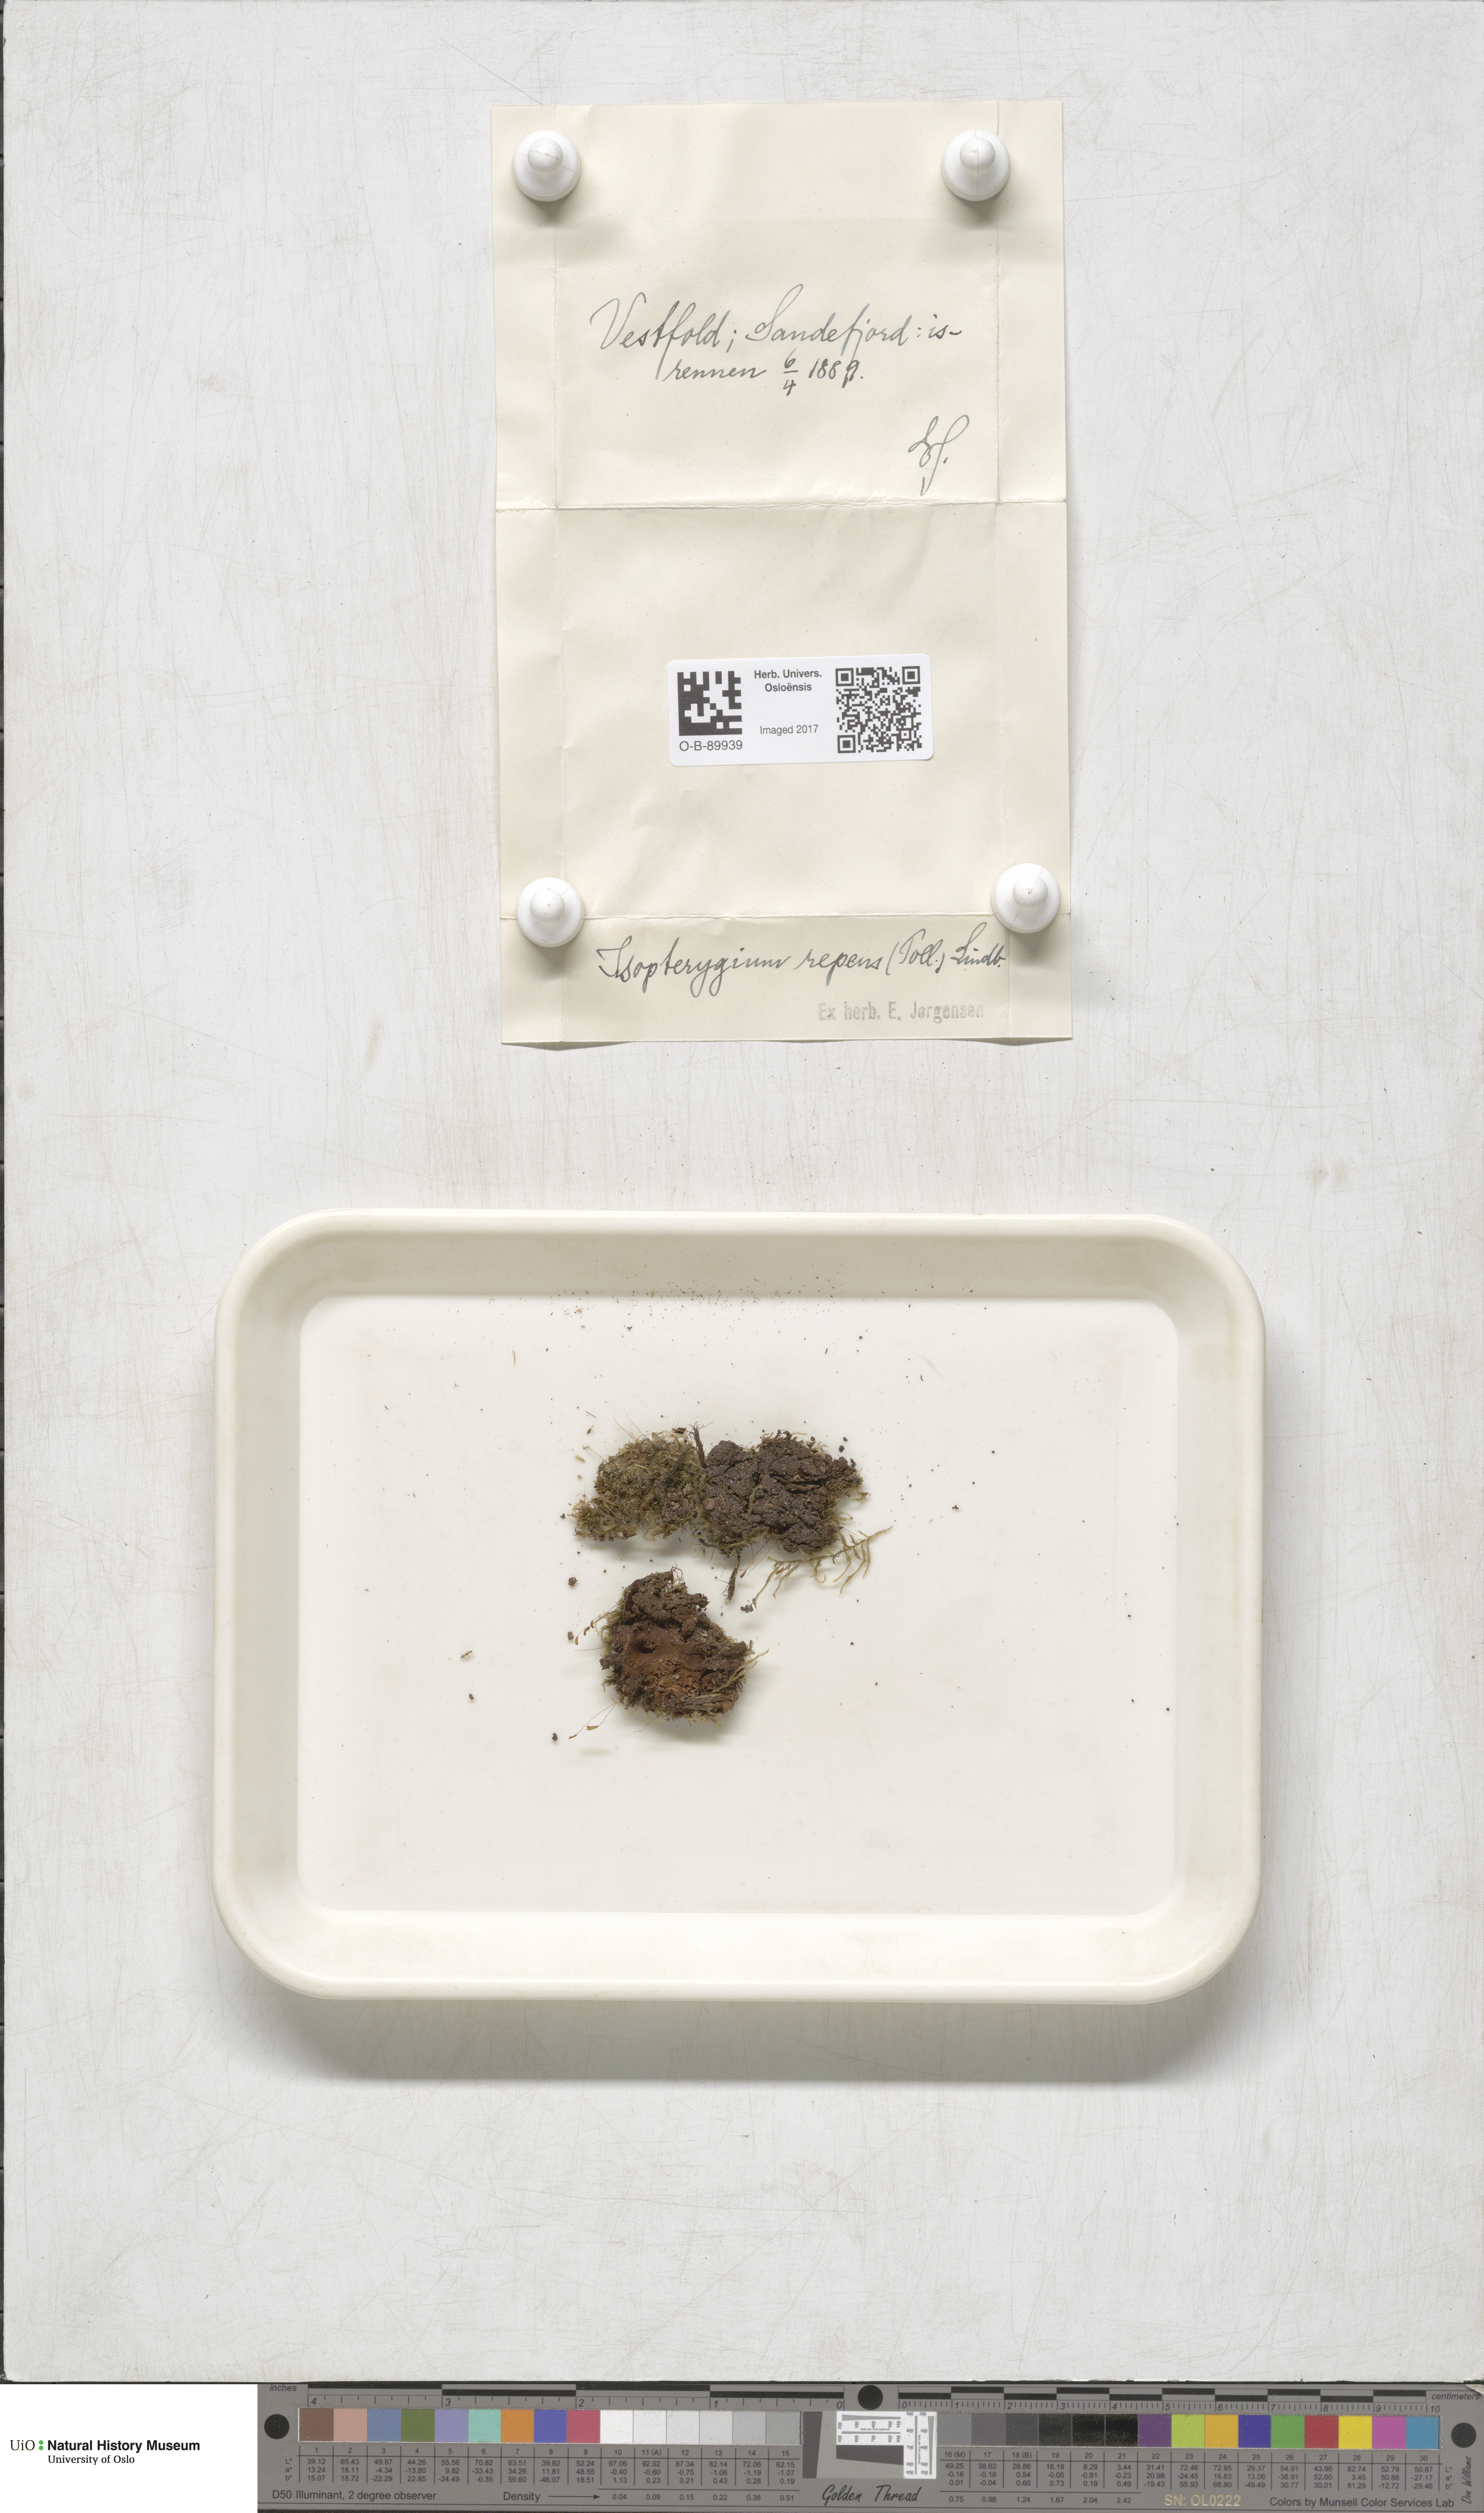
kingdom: Plantae
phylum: Bryophyta
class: Bryopsida
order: Hypnales
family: Plagiotheciaceae
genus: Herzogiella
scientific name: Herzogiella seligeri
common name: Silesian feather-moss
